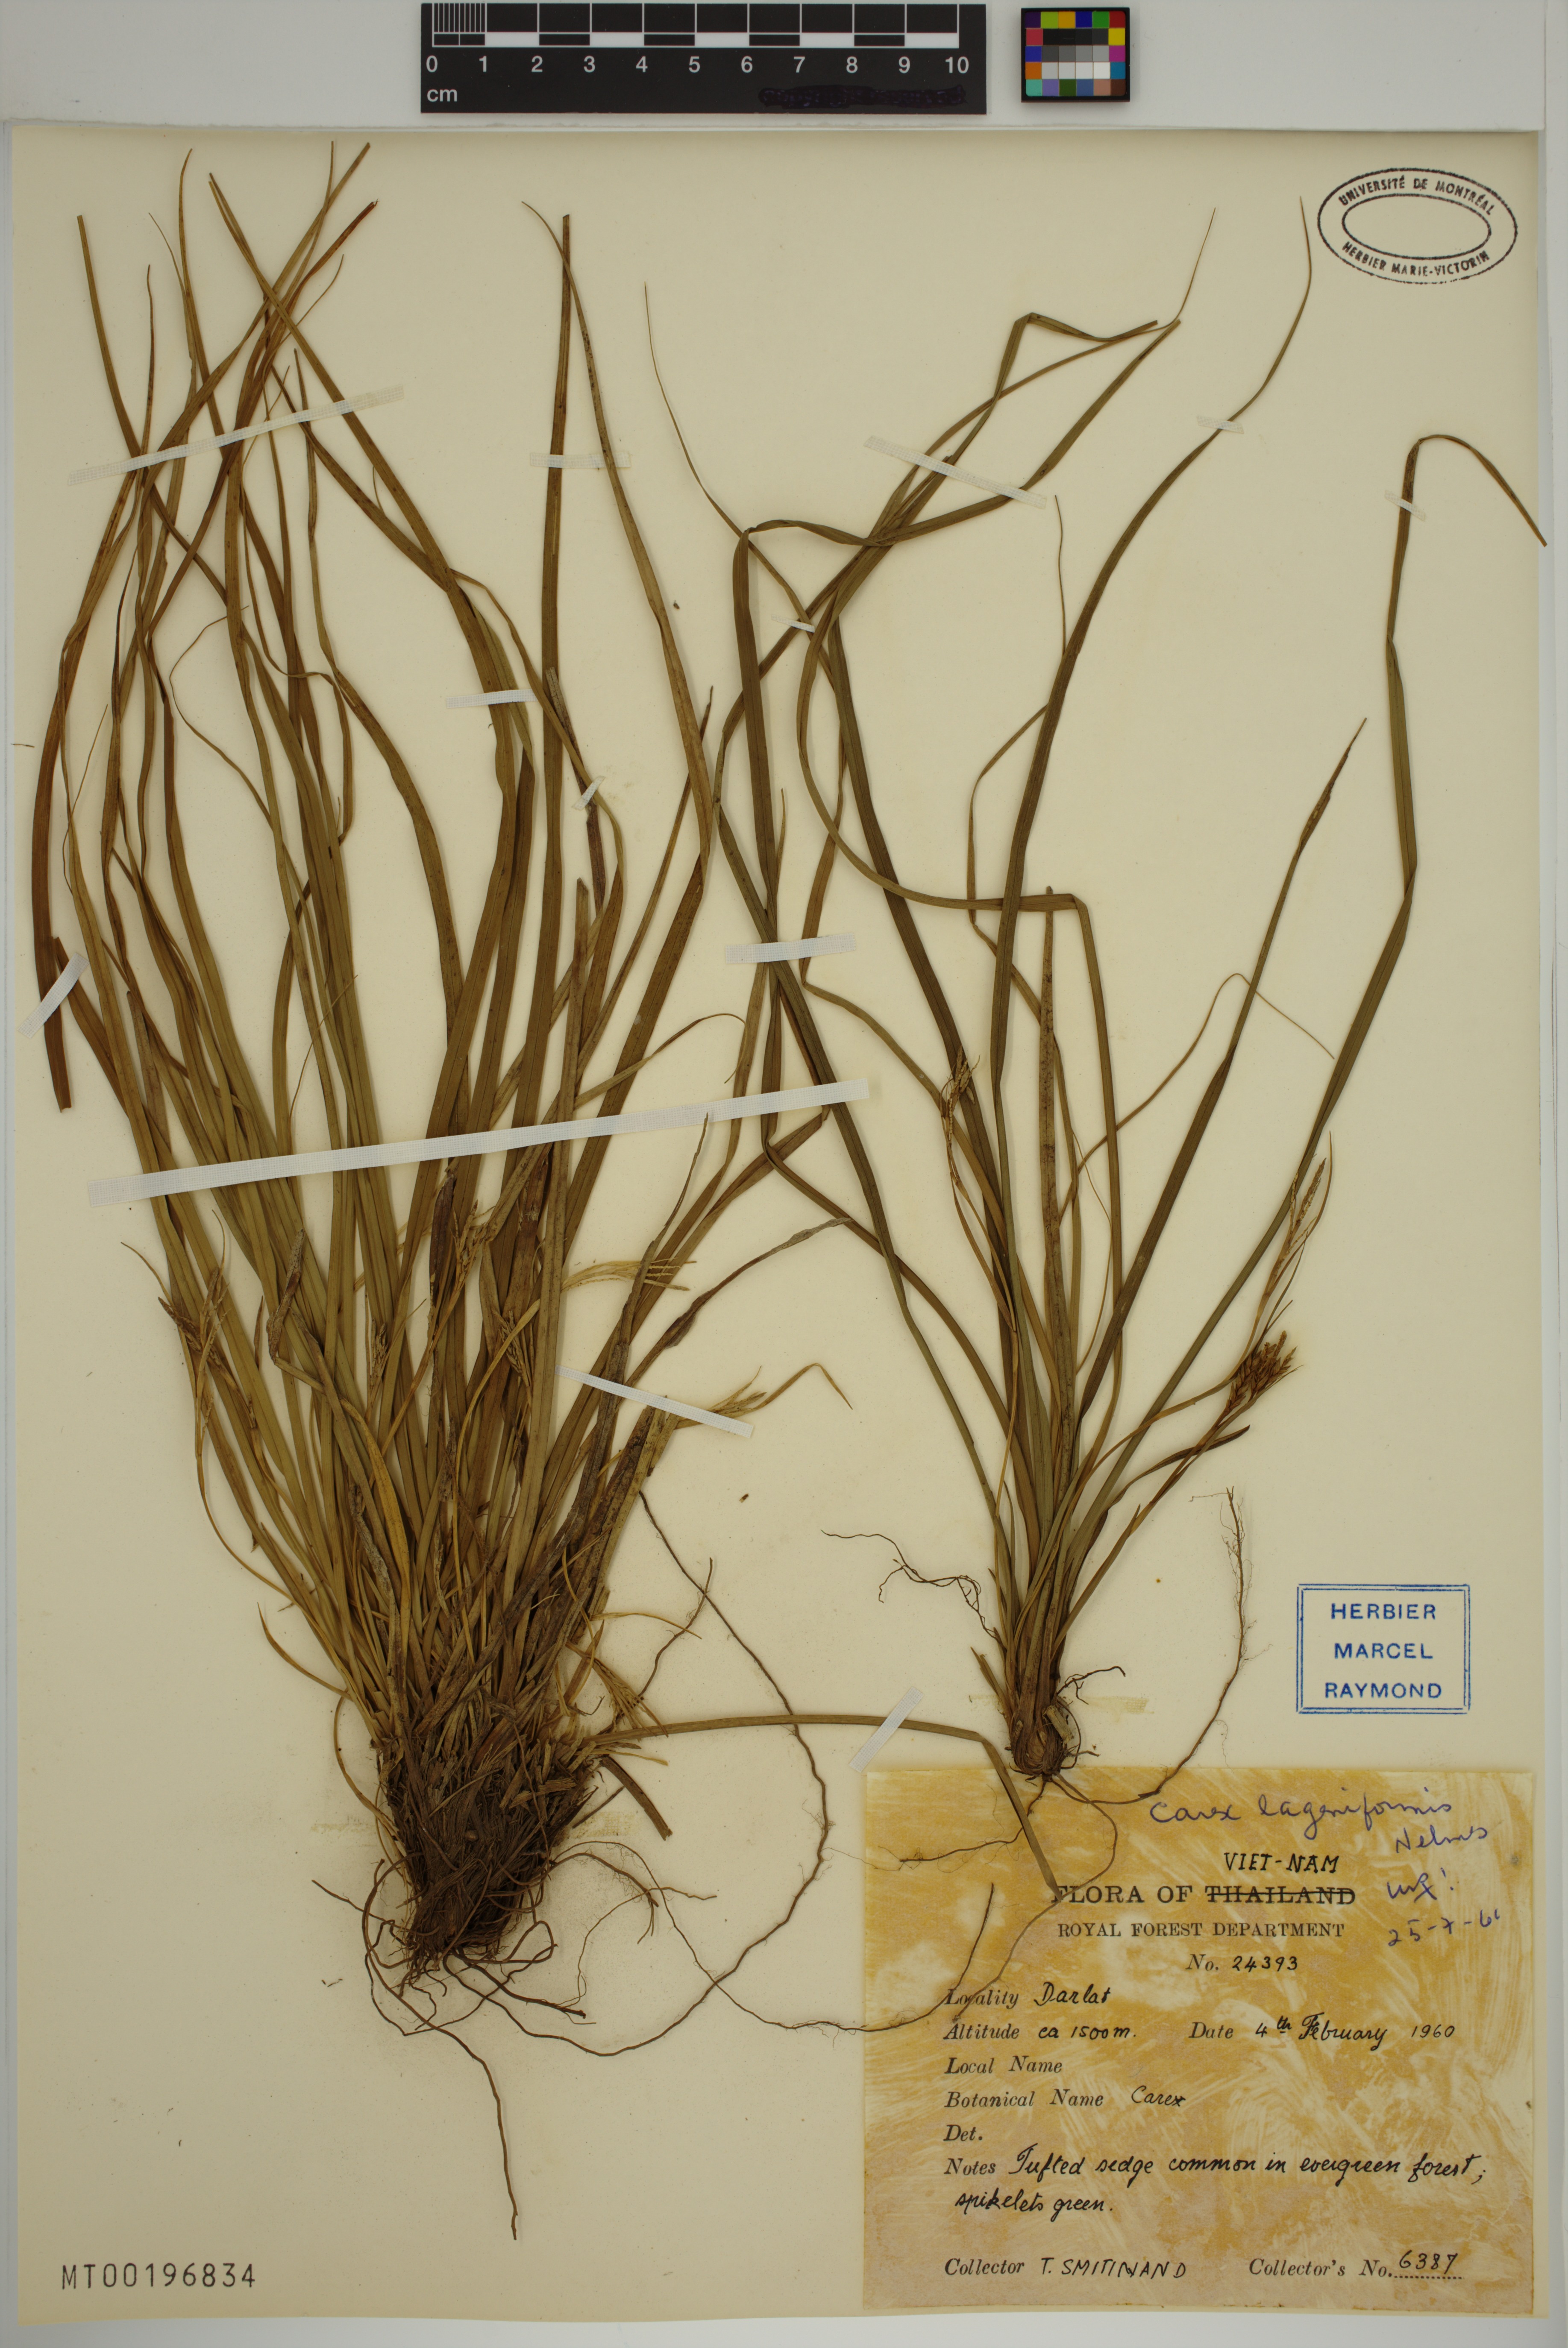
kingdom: Plantae
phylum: Tracheophyta
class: Liliopsida
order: Poales
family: Cyperaceae
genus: Carex
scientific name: Carex lageniformis
